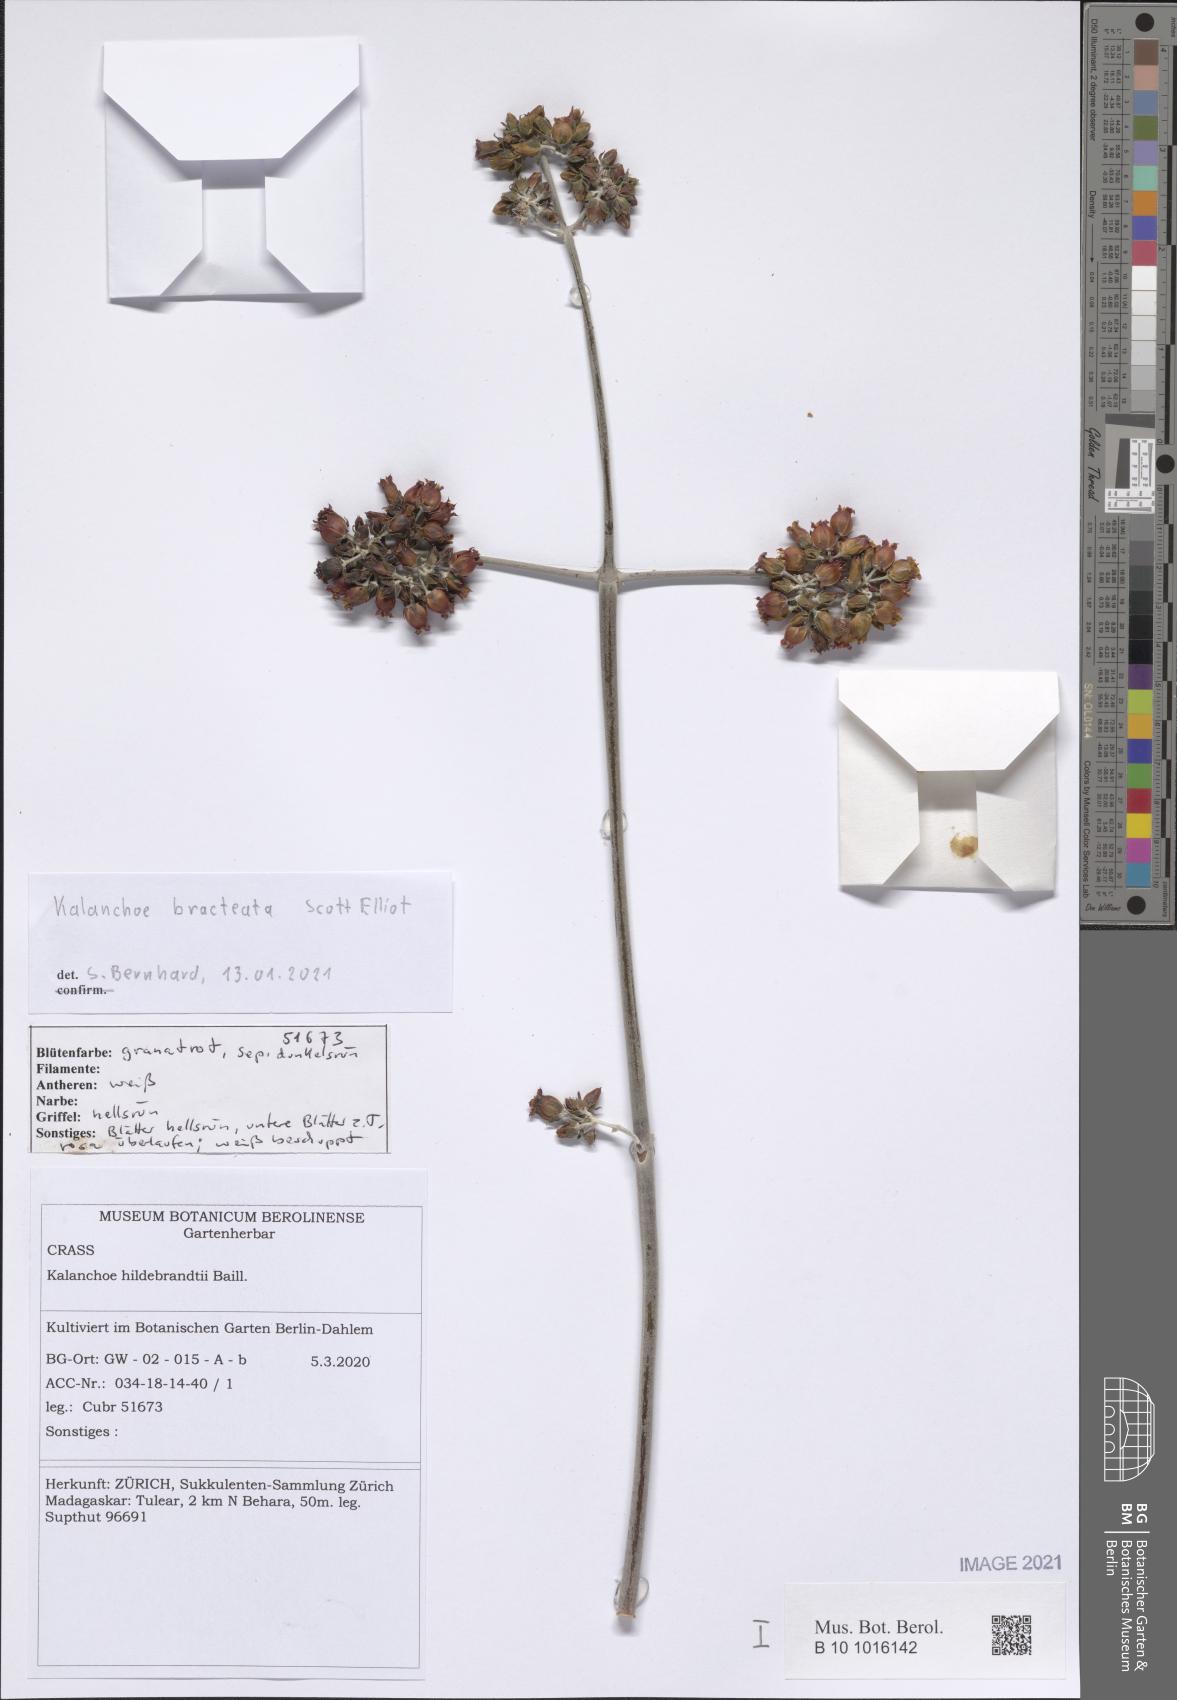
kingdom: Plantae
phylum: Tracheophyta
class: Magnoliopsida
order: Saxifragales
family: Crassulaceae
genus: Kalanchoe
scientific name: Kalanchoe bracteata
